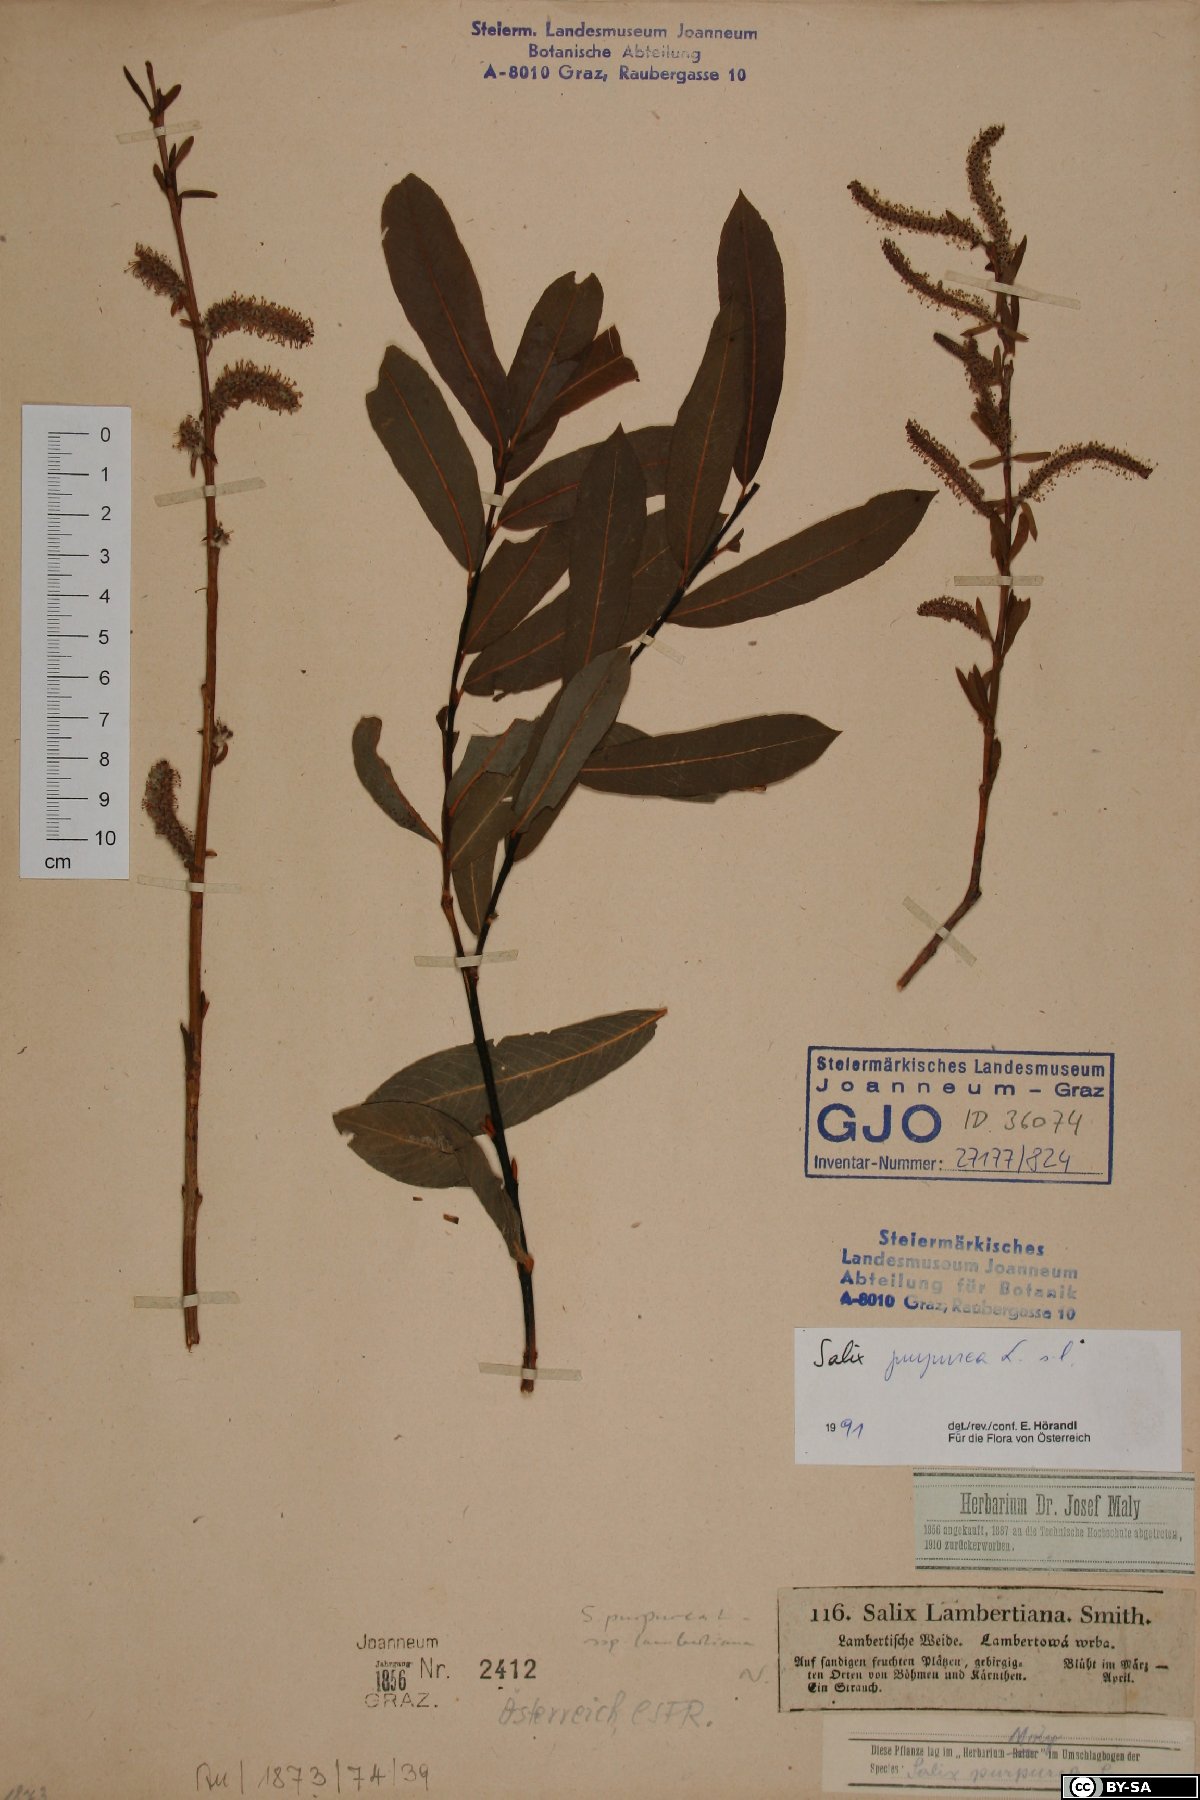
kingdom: Plantae
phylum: Tracheophyta
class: Magnoliopsida
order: Malpighiales
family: Salicaceae
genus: Salix
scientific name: Salix purpurea
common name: Purple willow
